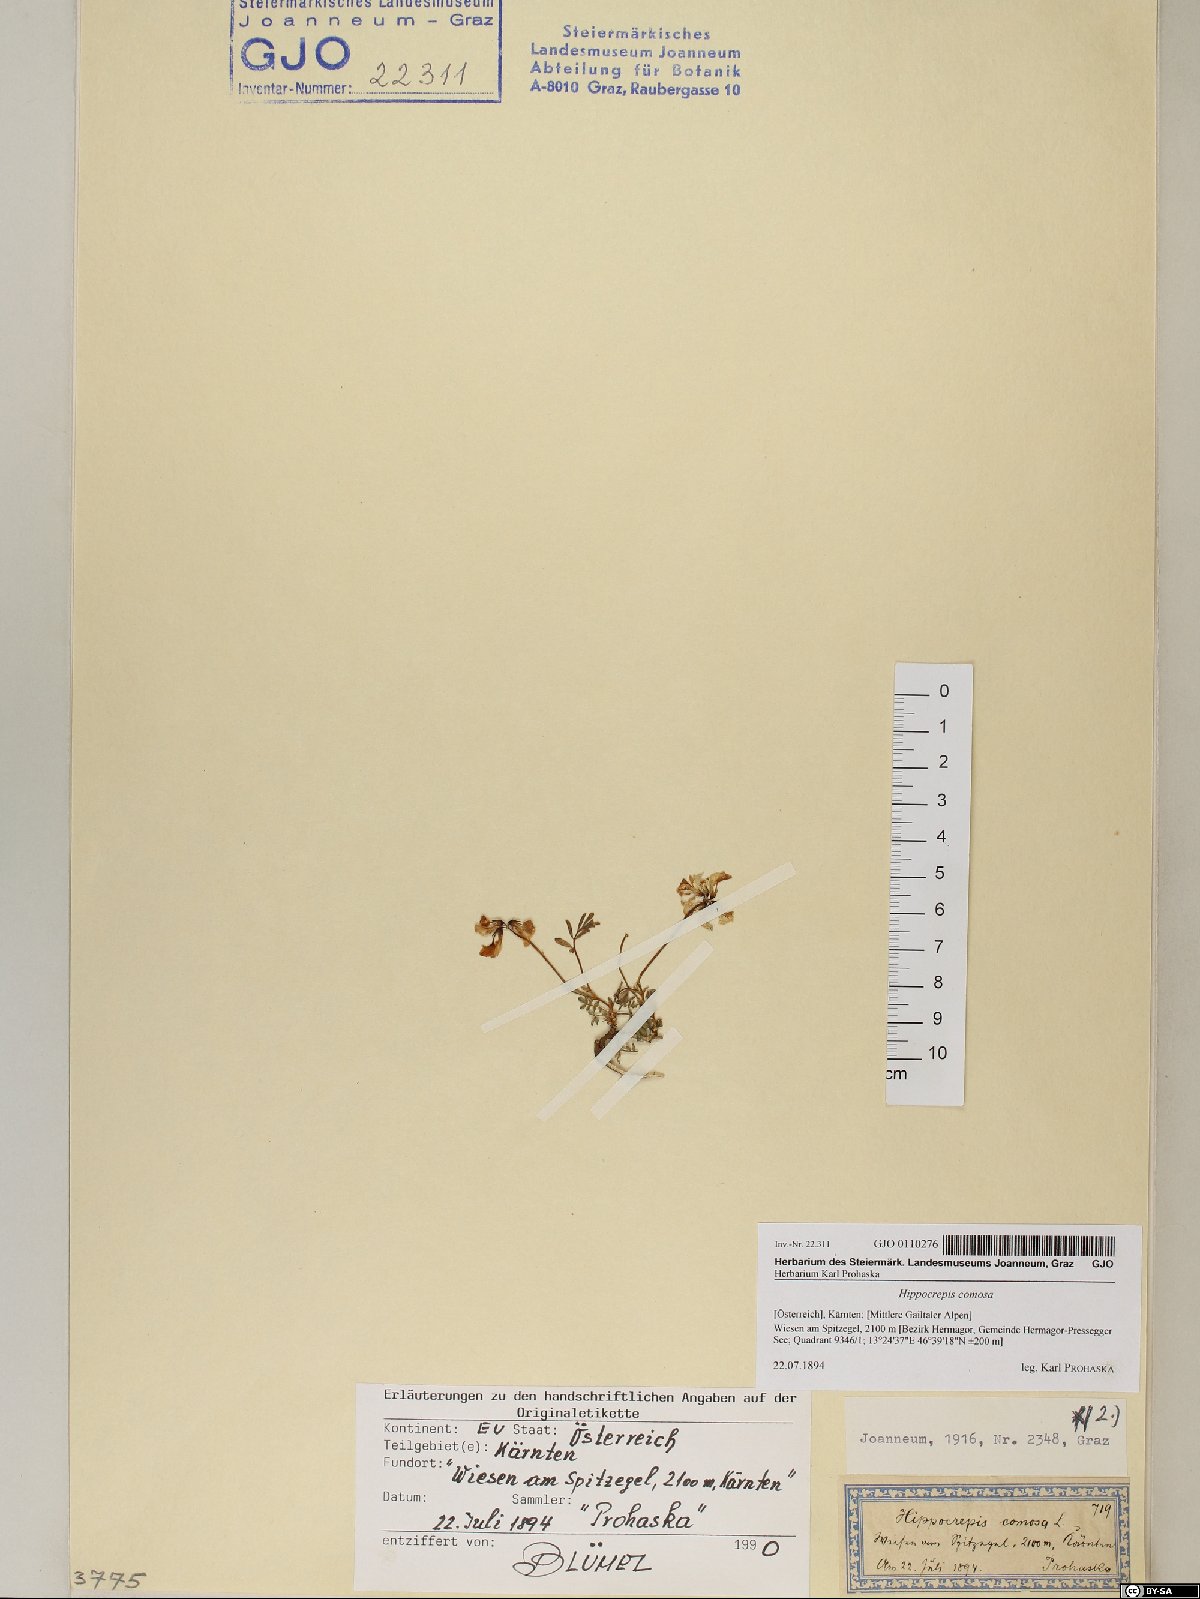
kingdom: Plantae
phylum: Tracheophyta
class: Magnoliopsida
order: Fabales
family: Fabaceae
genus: Hippocrepis
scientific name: Hippocrepis comosa
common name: Horseshoe vetch
